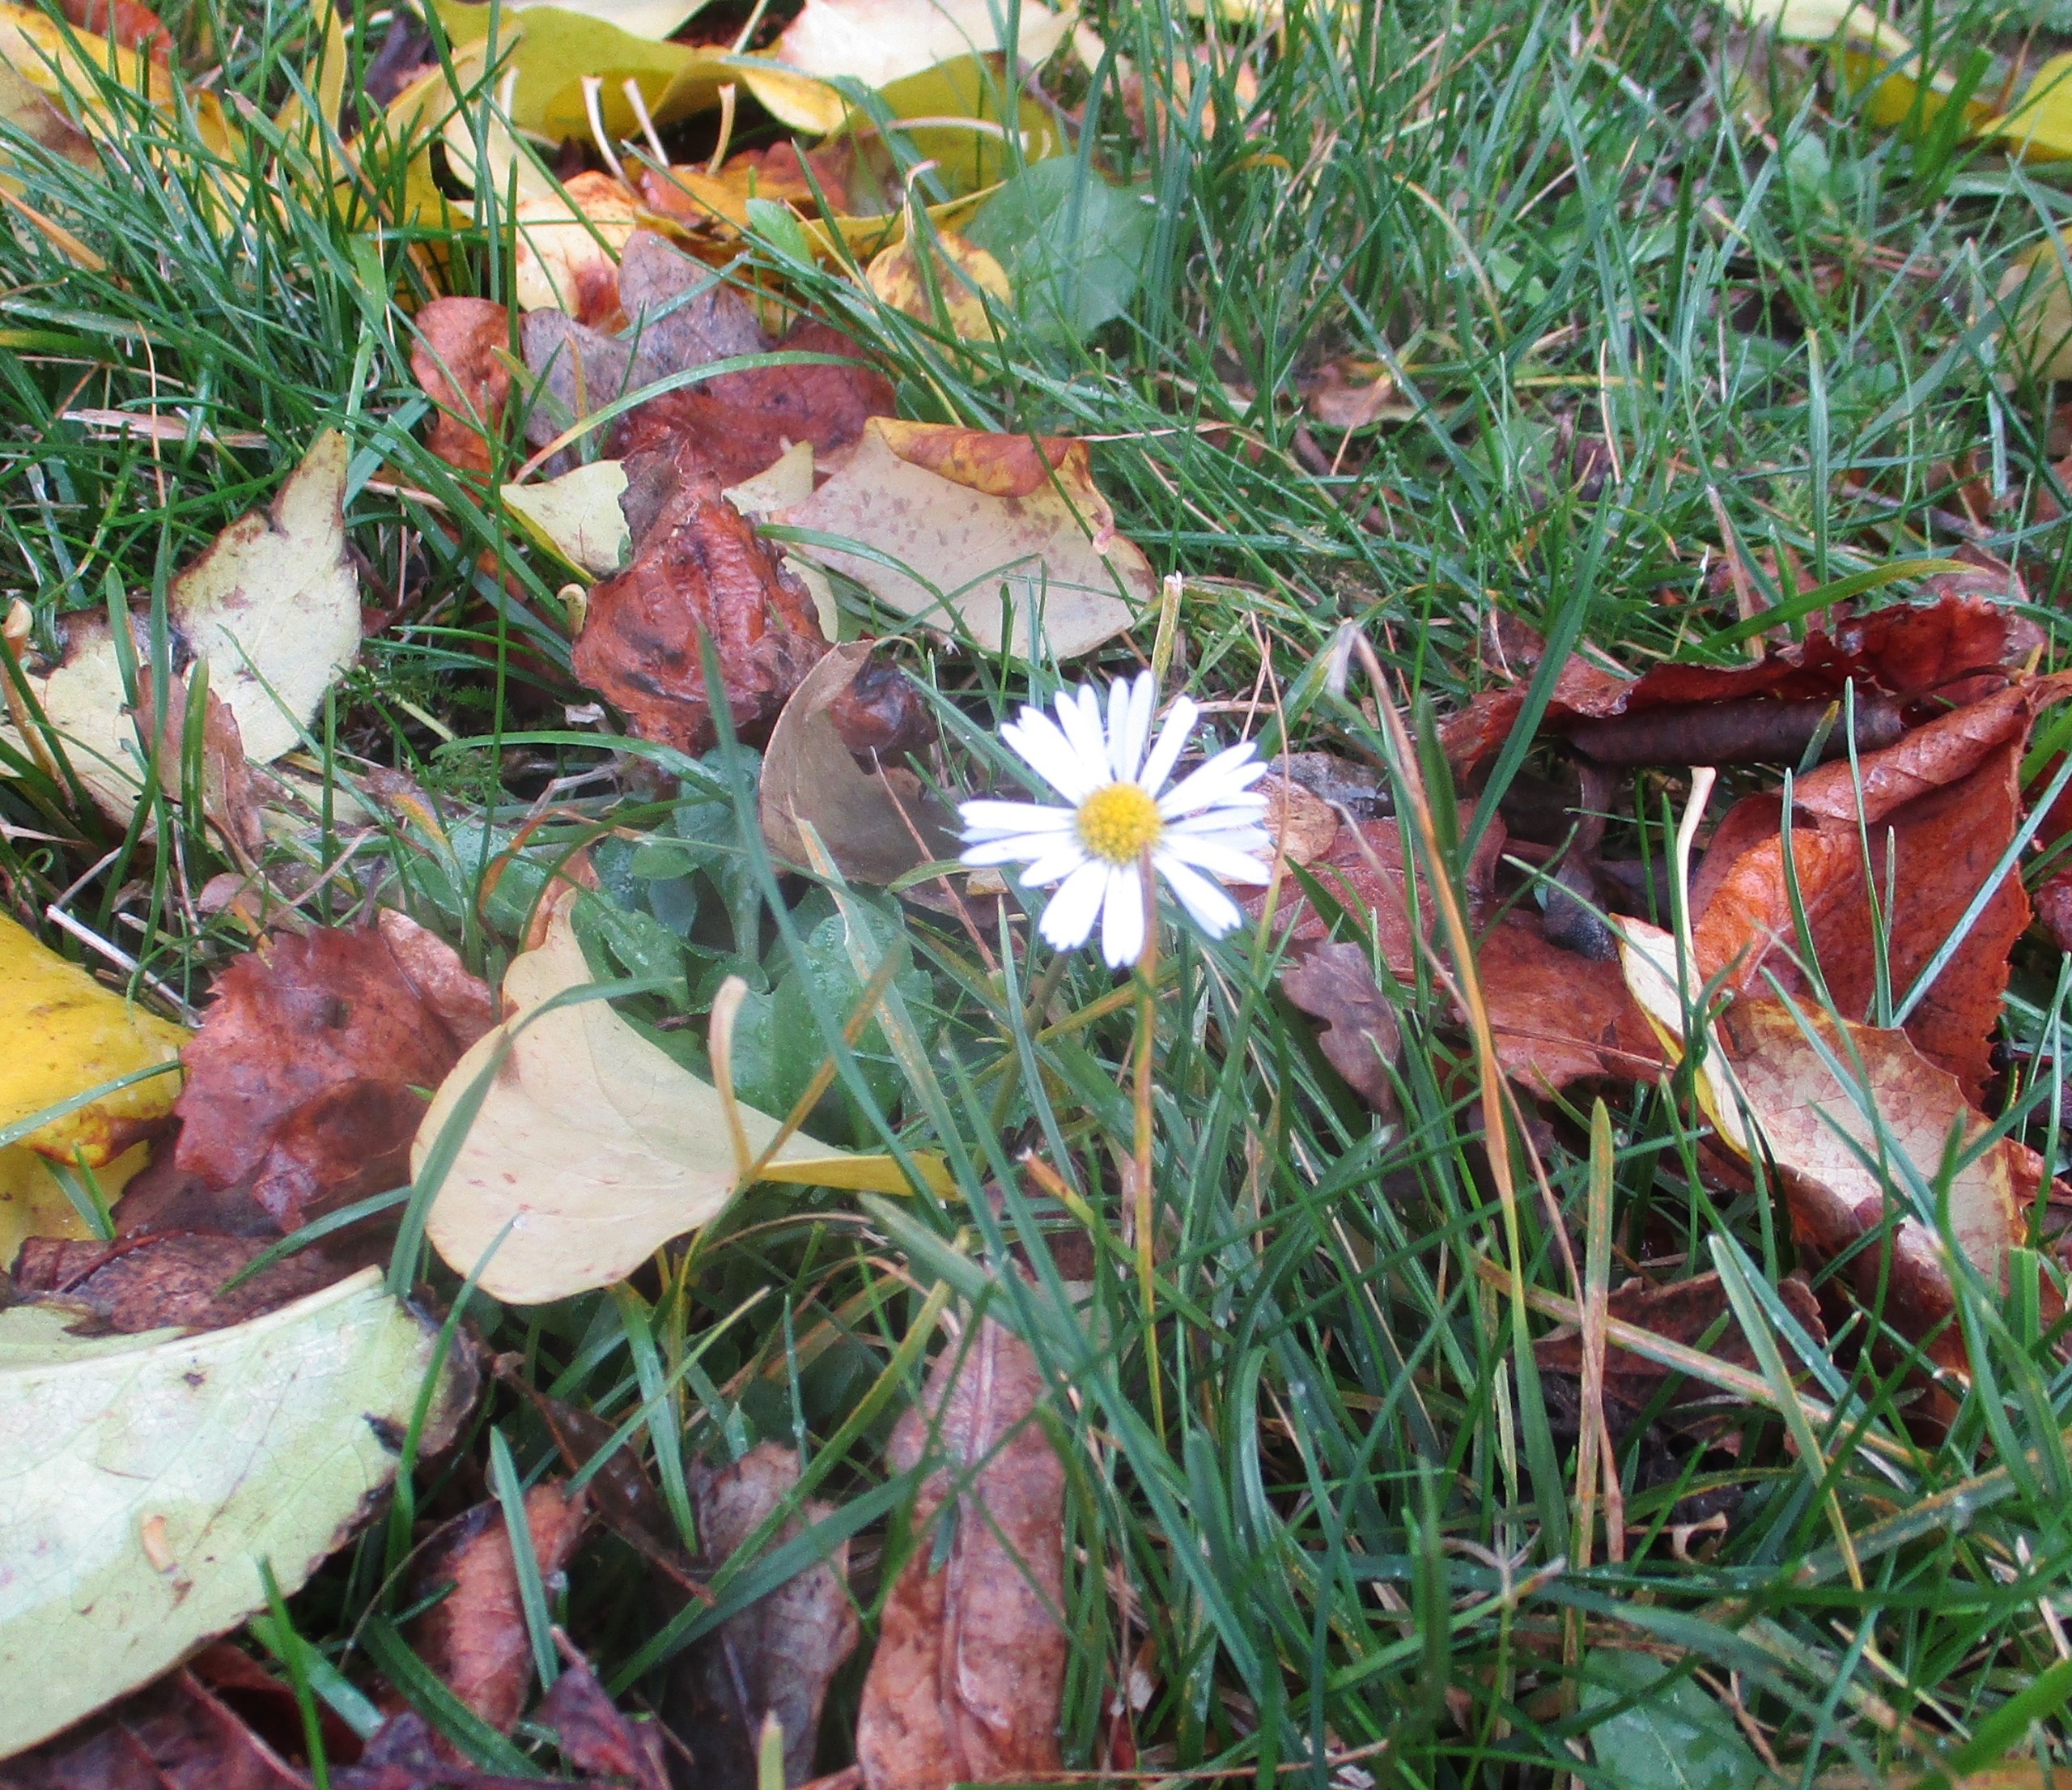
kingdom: Plantae
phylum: Tracheophyta
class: Magnoliopsida
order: Asterales
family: Asteraceae
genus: Bellis
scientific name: Bellis perennis
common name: Tusindfryd
